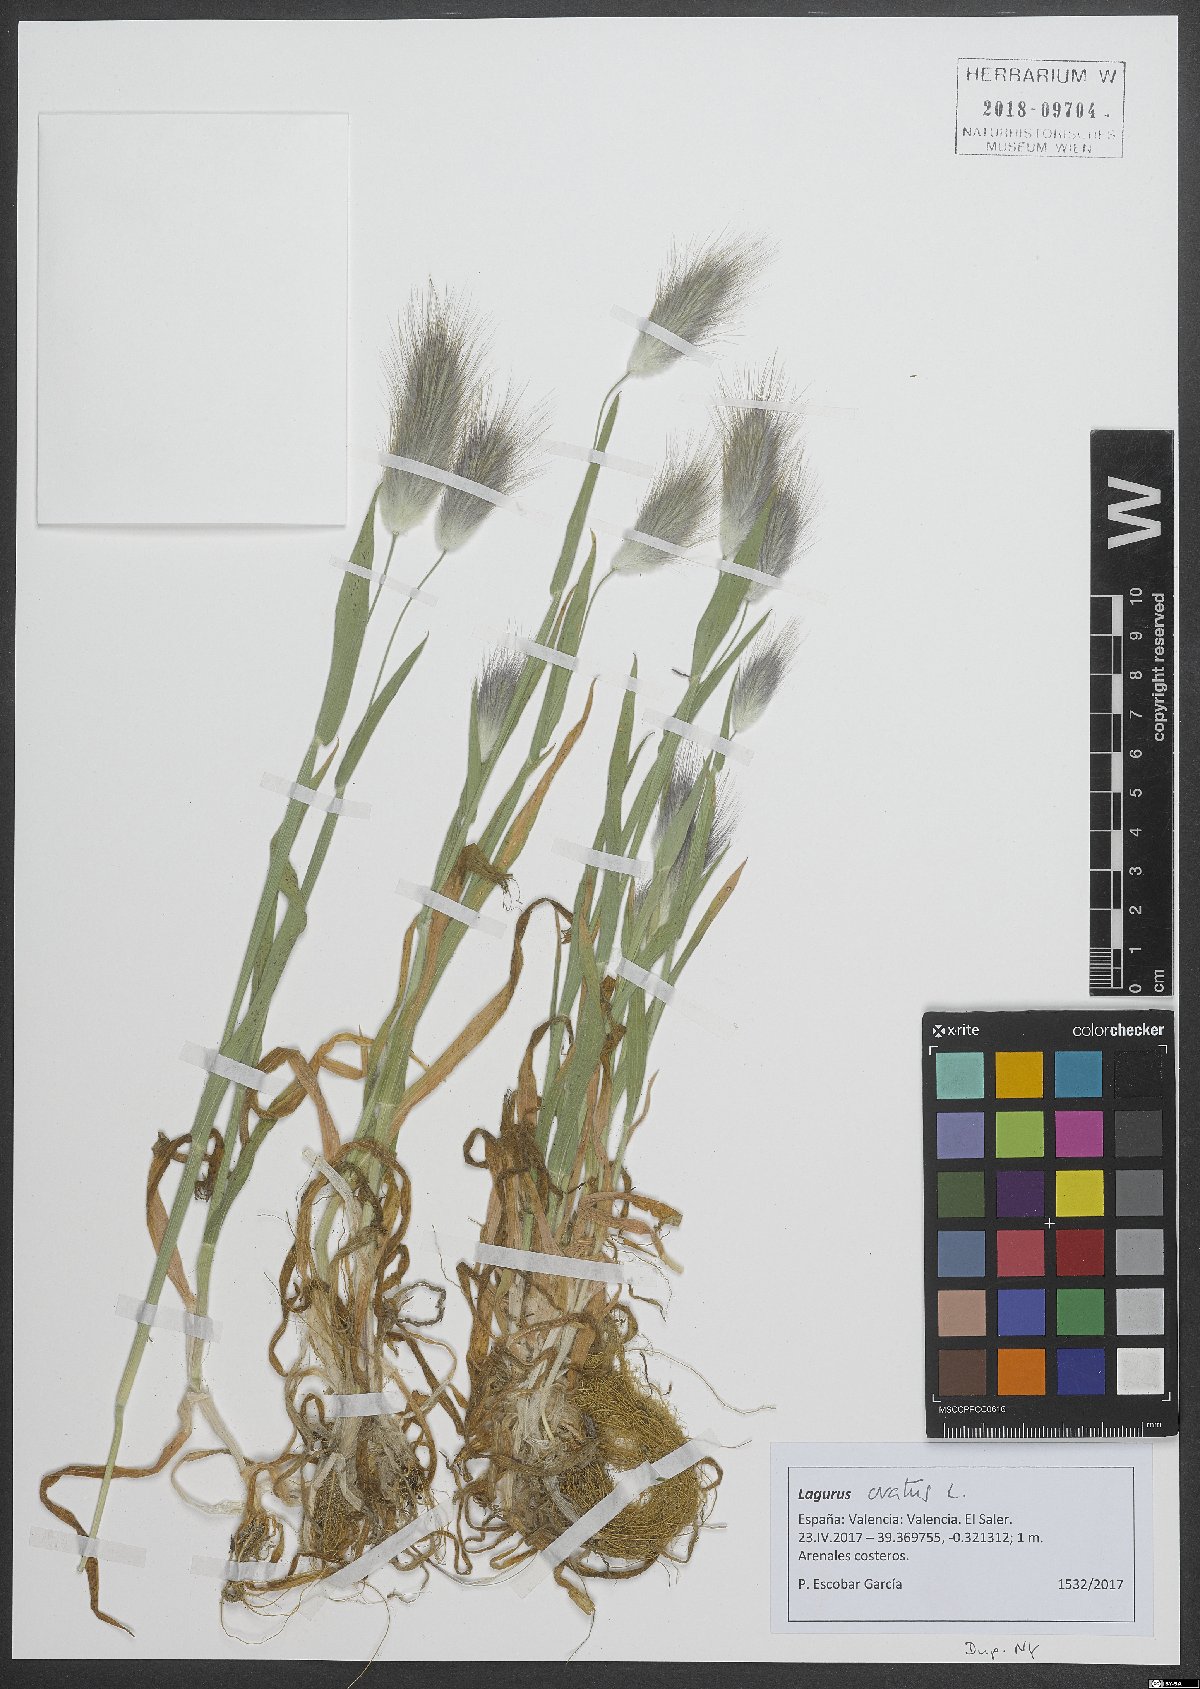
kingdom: Plantae
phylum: Tracheophyta
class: Liliopsida
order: Poales
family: Poaceae
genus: Lagurus
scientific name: Lagurus ovatus
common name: Hare's-tail
